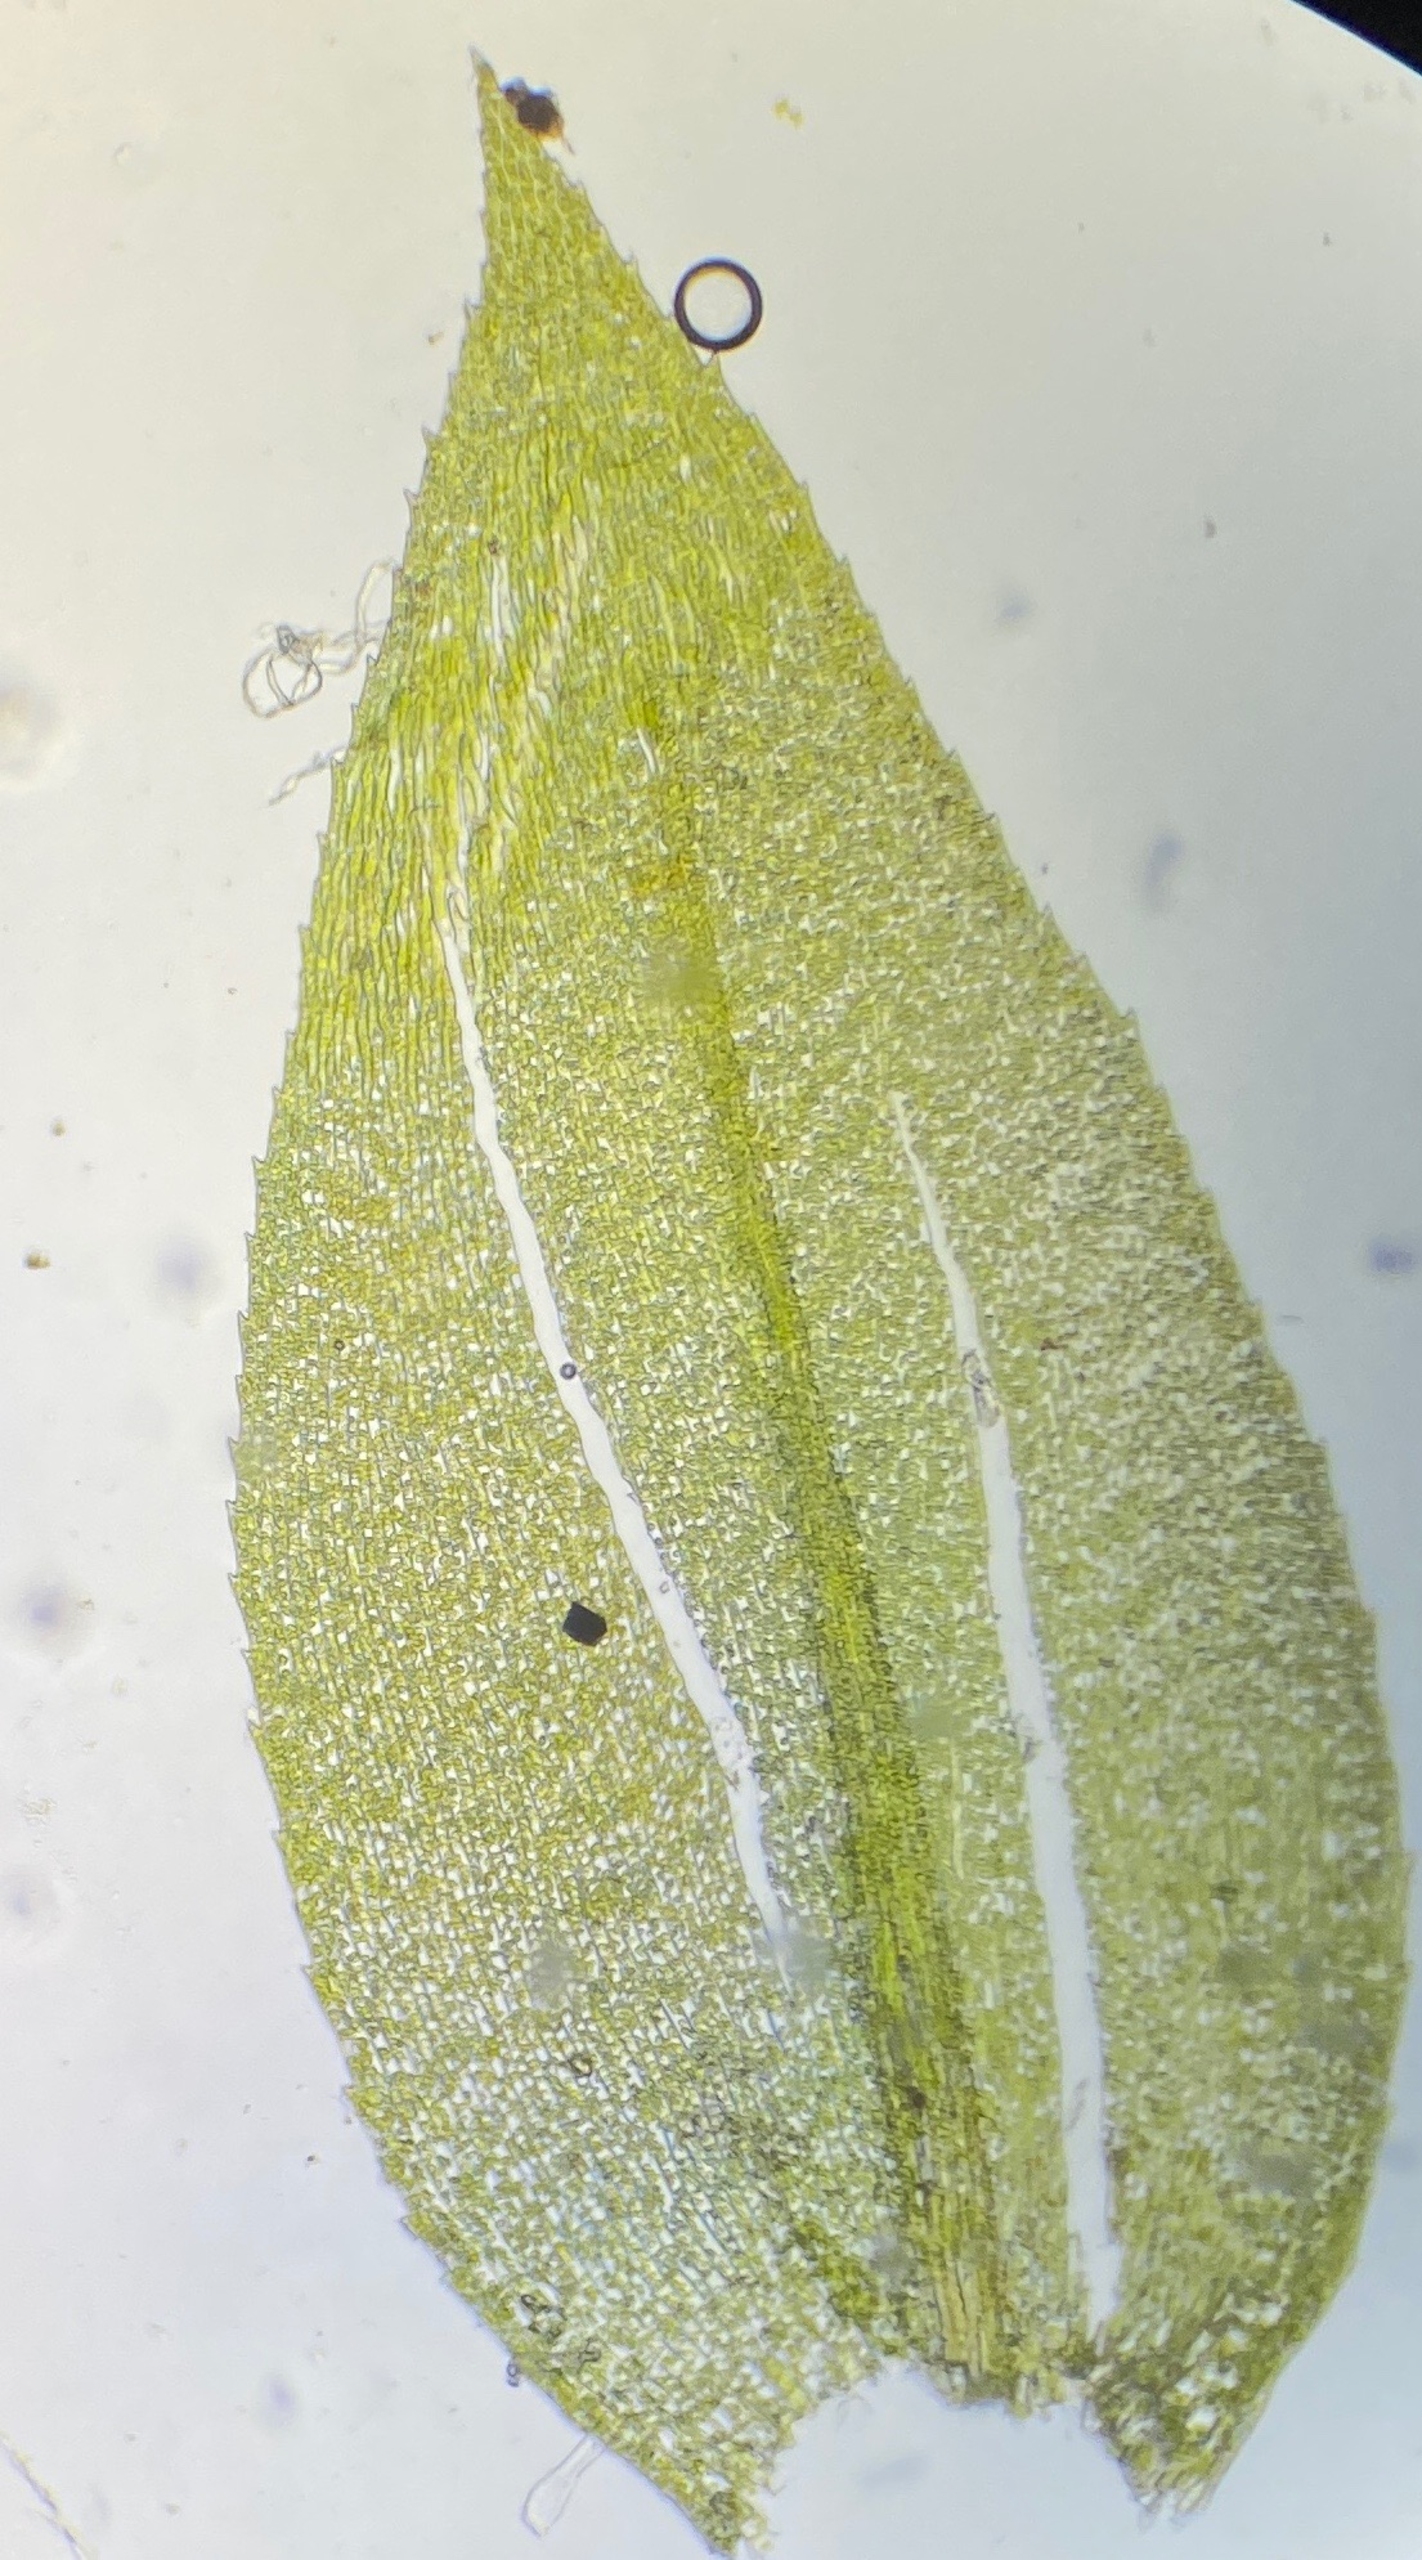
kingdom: Plantae
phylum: Bryophyta
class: Bryopsida
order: Hypnales
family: Brachytheciaceae
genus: Oxyrrhynchium
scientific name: Oxyrrhynchium speciosum
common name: Stor vortetand
